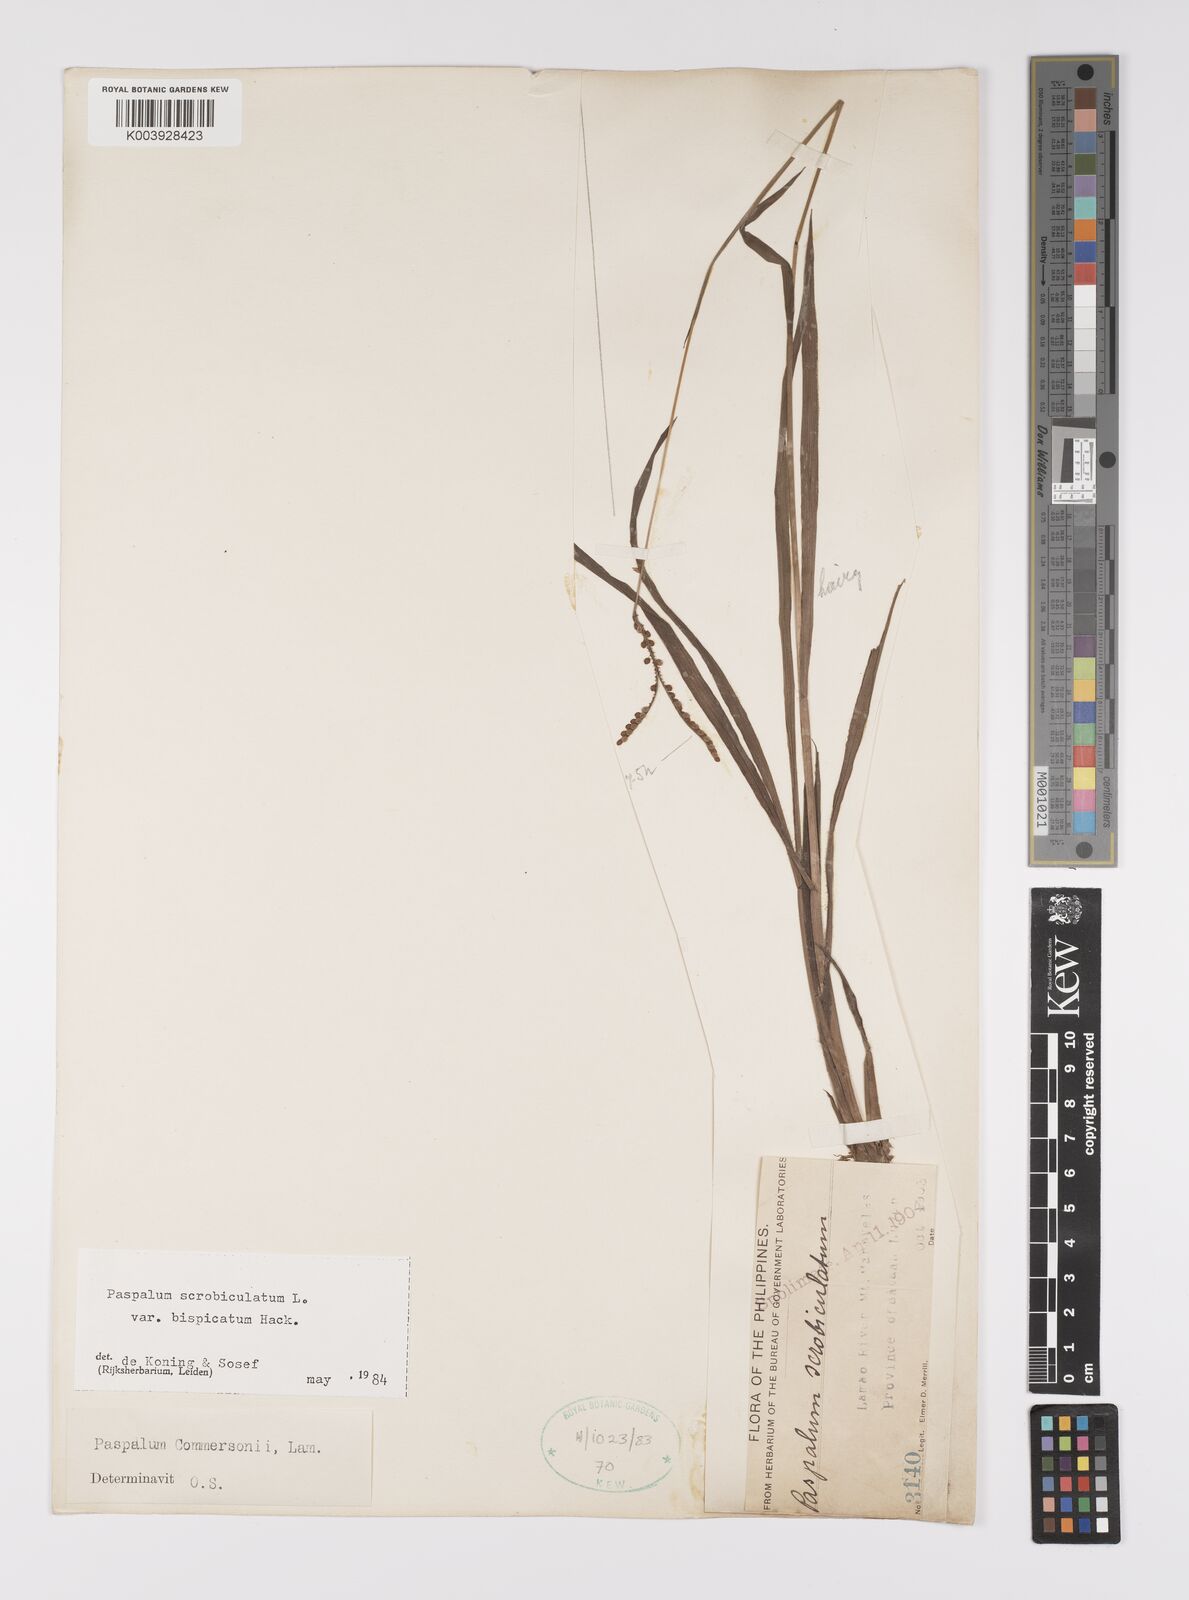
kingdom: Plantae
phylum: Tracheophyta
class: Liliopsida
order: Poales
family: Poaceae
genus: Paspalum
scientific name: Paspalum scrobiculatum
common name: Kodo millet
